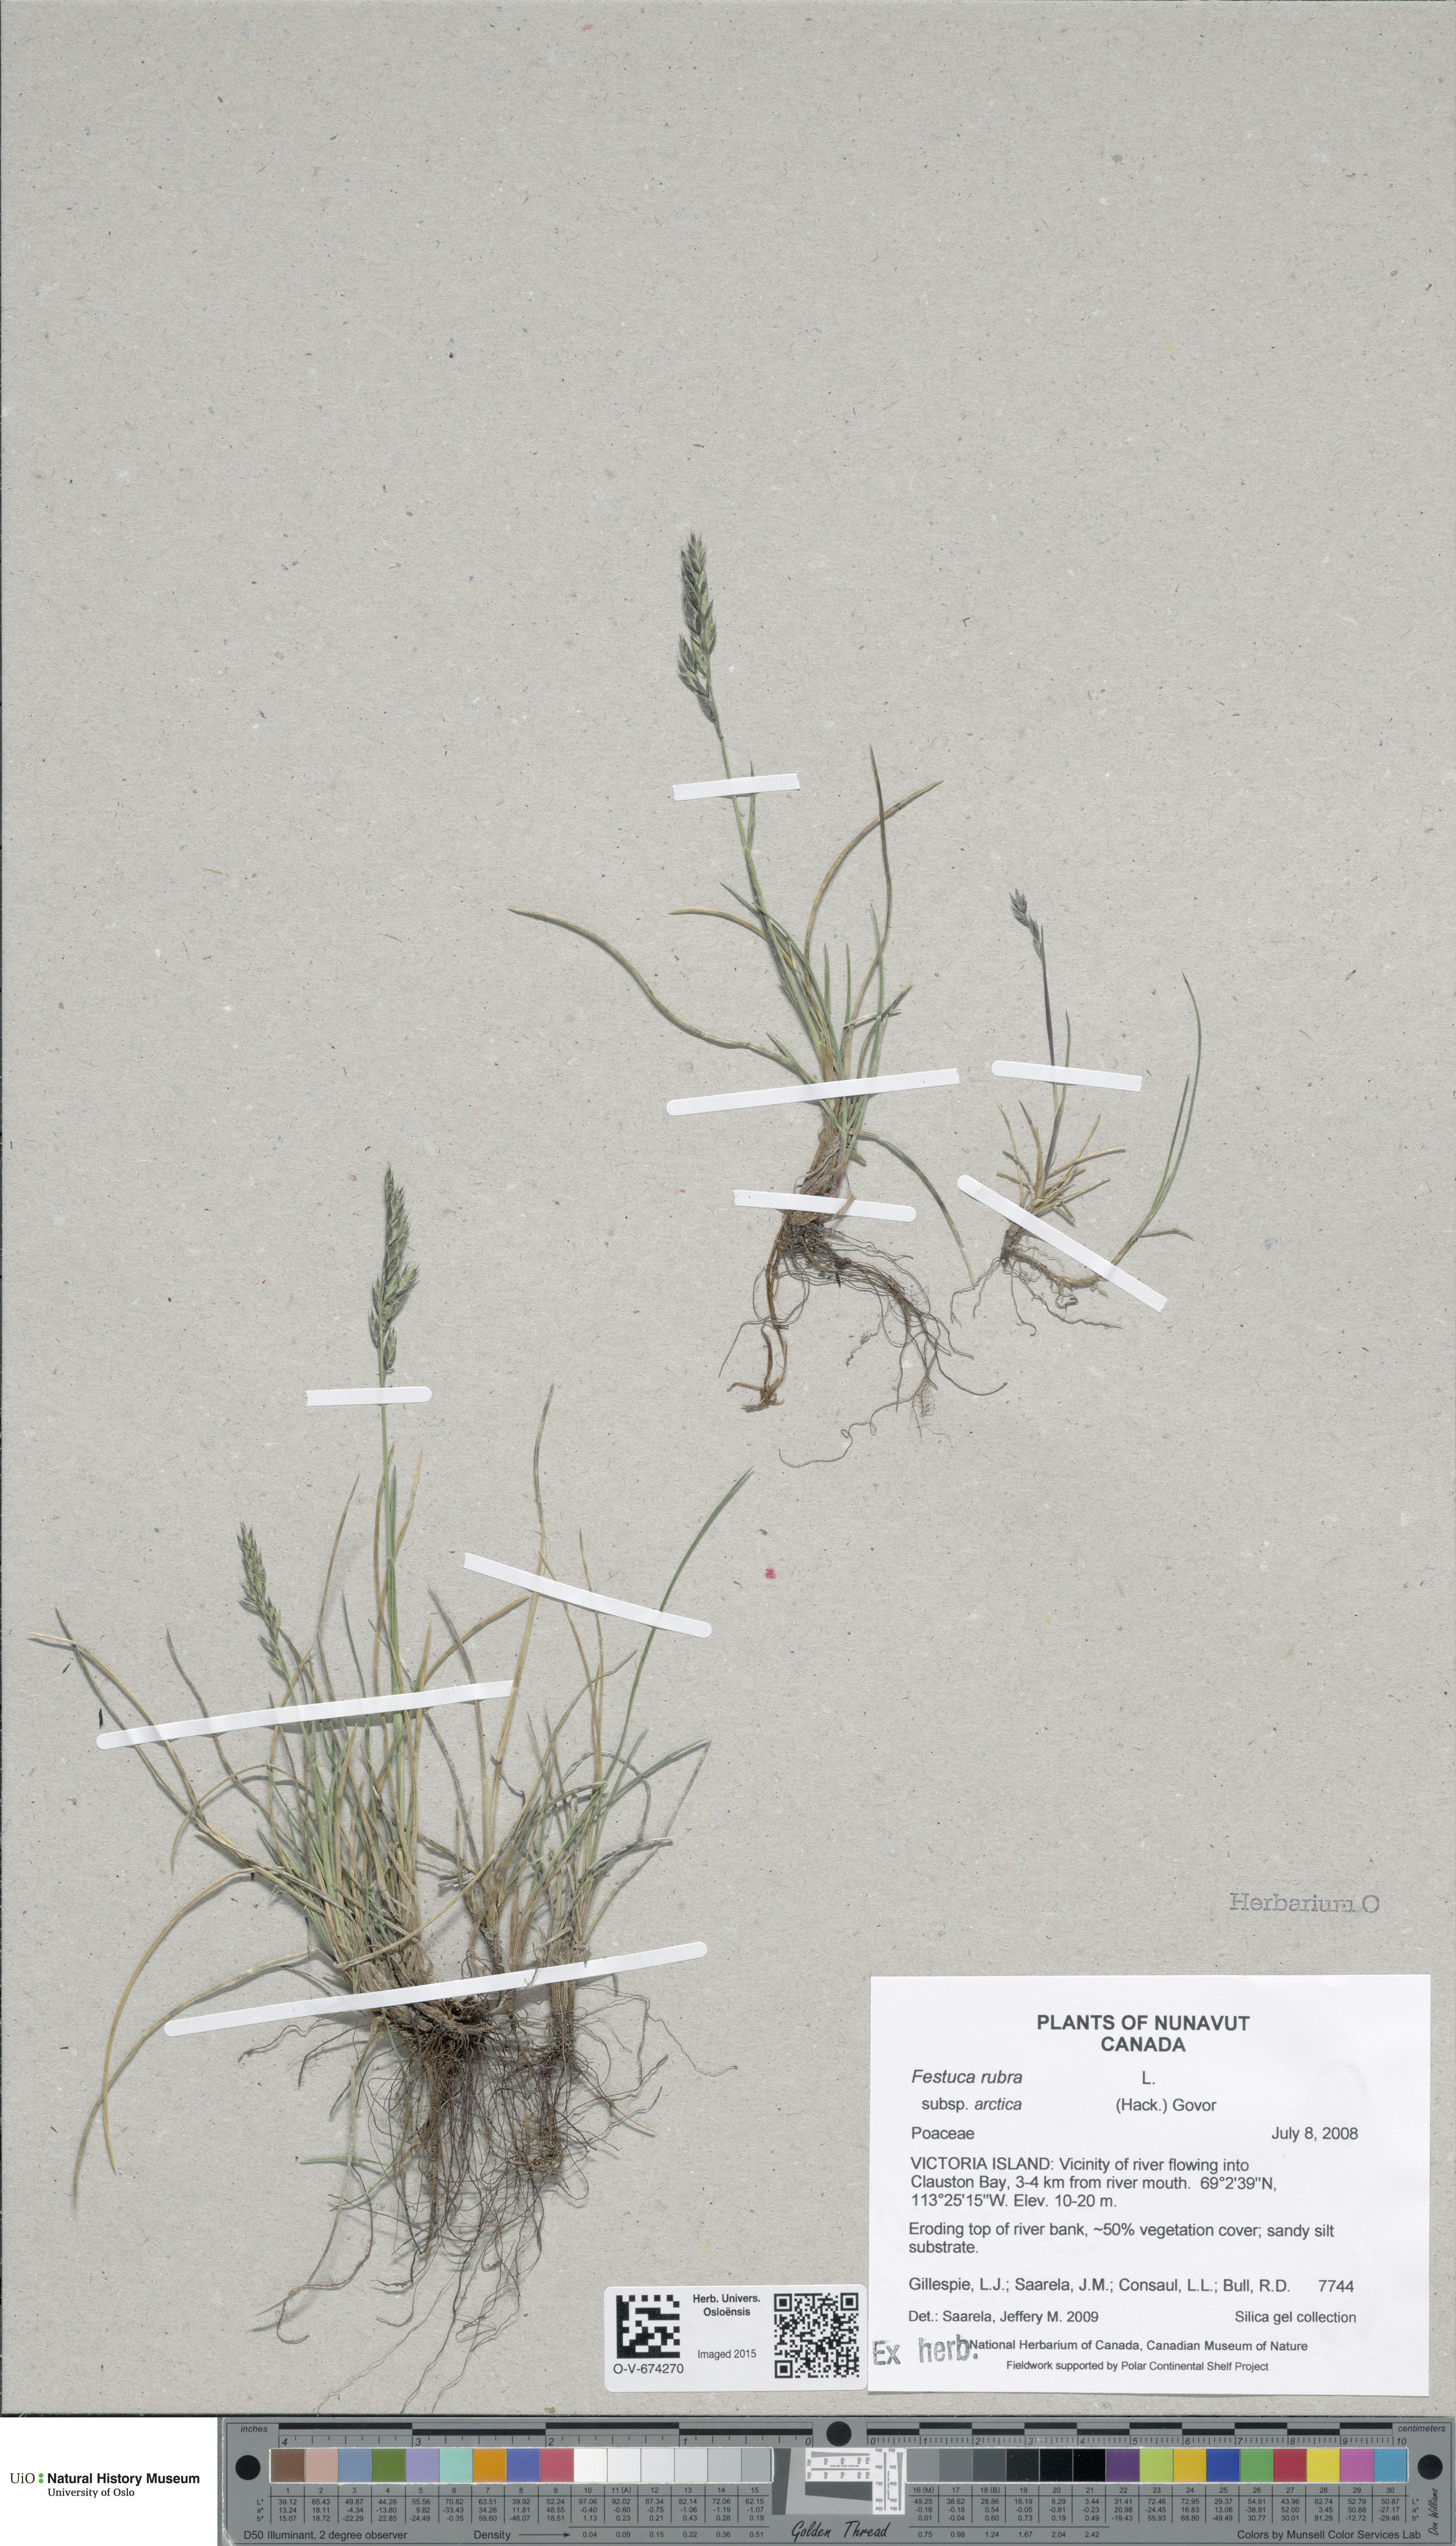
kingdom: Plantae
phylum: Tracheophyta
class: Liliopsida
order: Poales
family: Poaceae
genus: Festuca
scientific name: Festuca richardsonii
